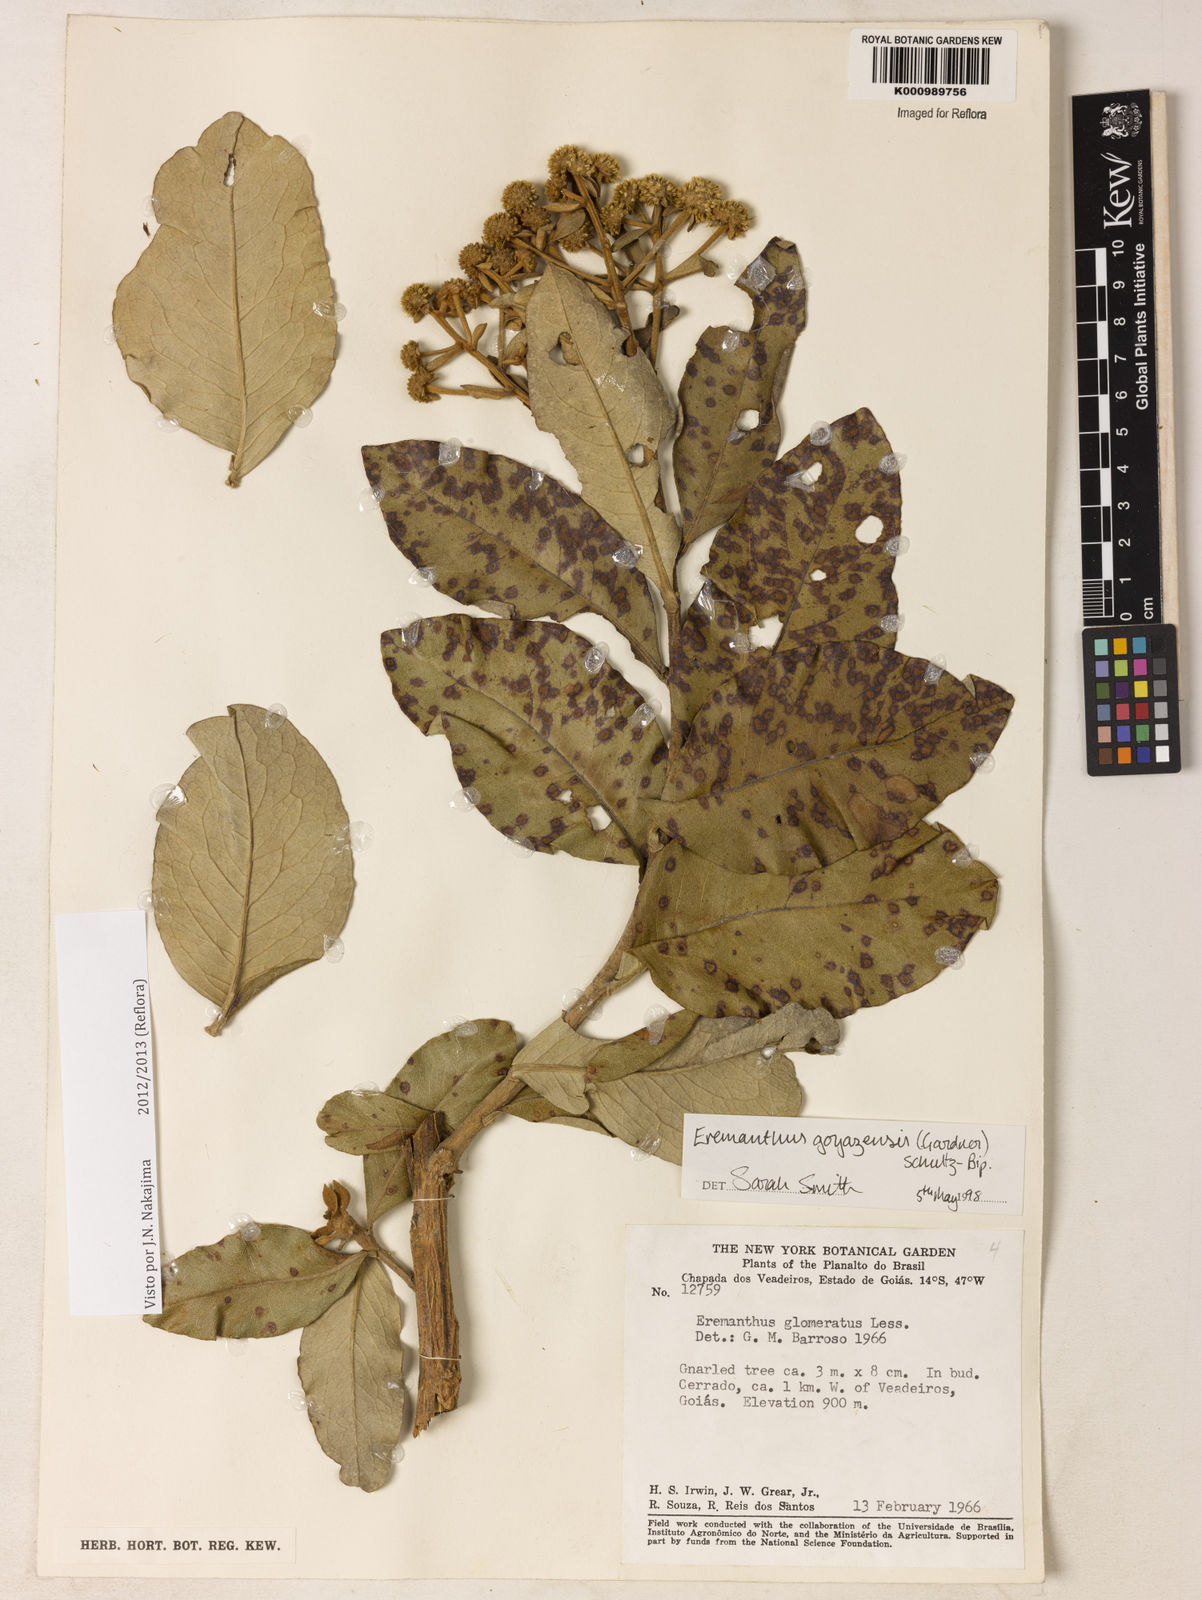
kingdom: Plantae
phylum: Tracheophyta
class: Magnoliopsida
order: Asterales
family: Asteraceae
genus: Eremanthus
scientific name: Eremanthus goyazensis
